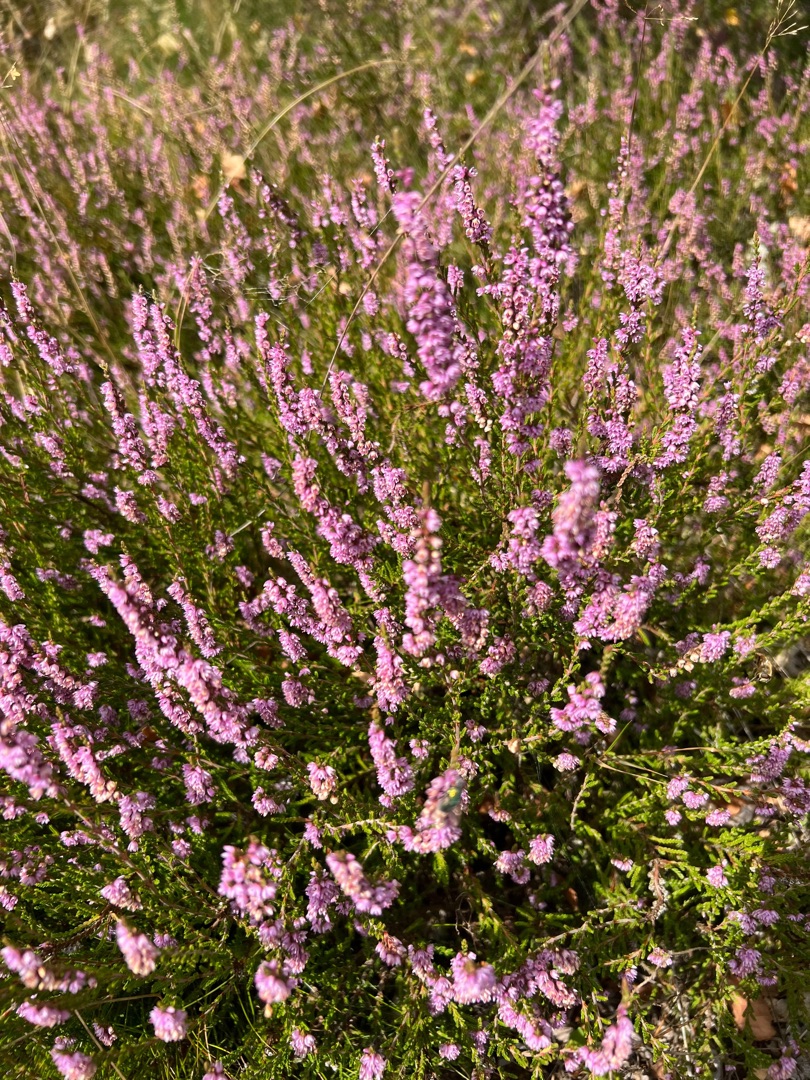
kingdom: Plantae
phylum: Tracheophyta
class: Magnoliopsida
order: Ericales
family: Ericaceae
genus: Calluna
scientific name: Calluna vulgaris
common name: Hedelyng
